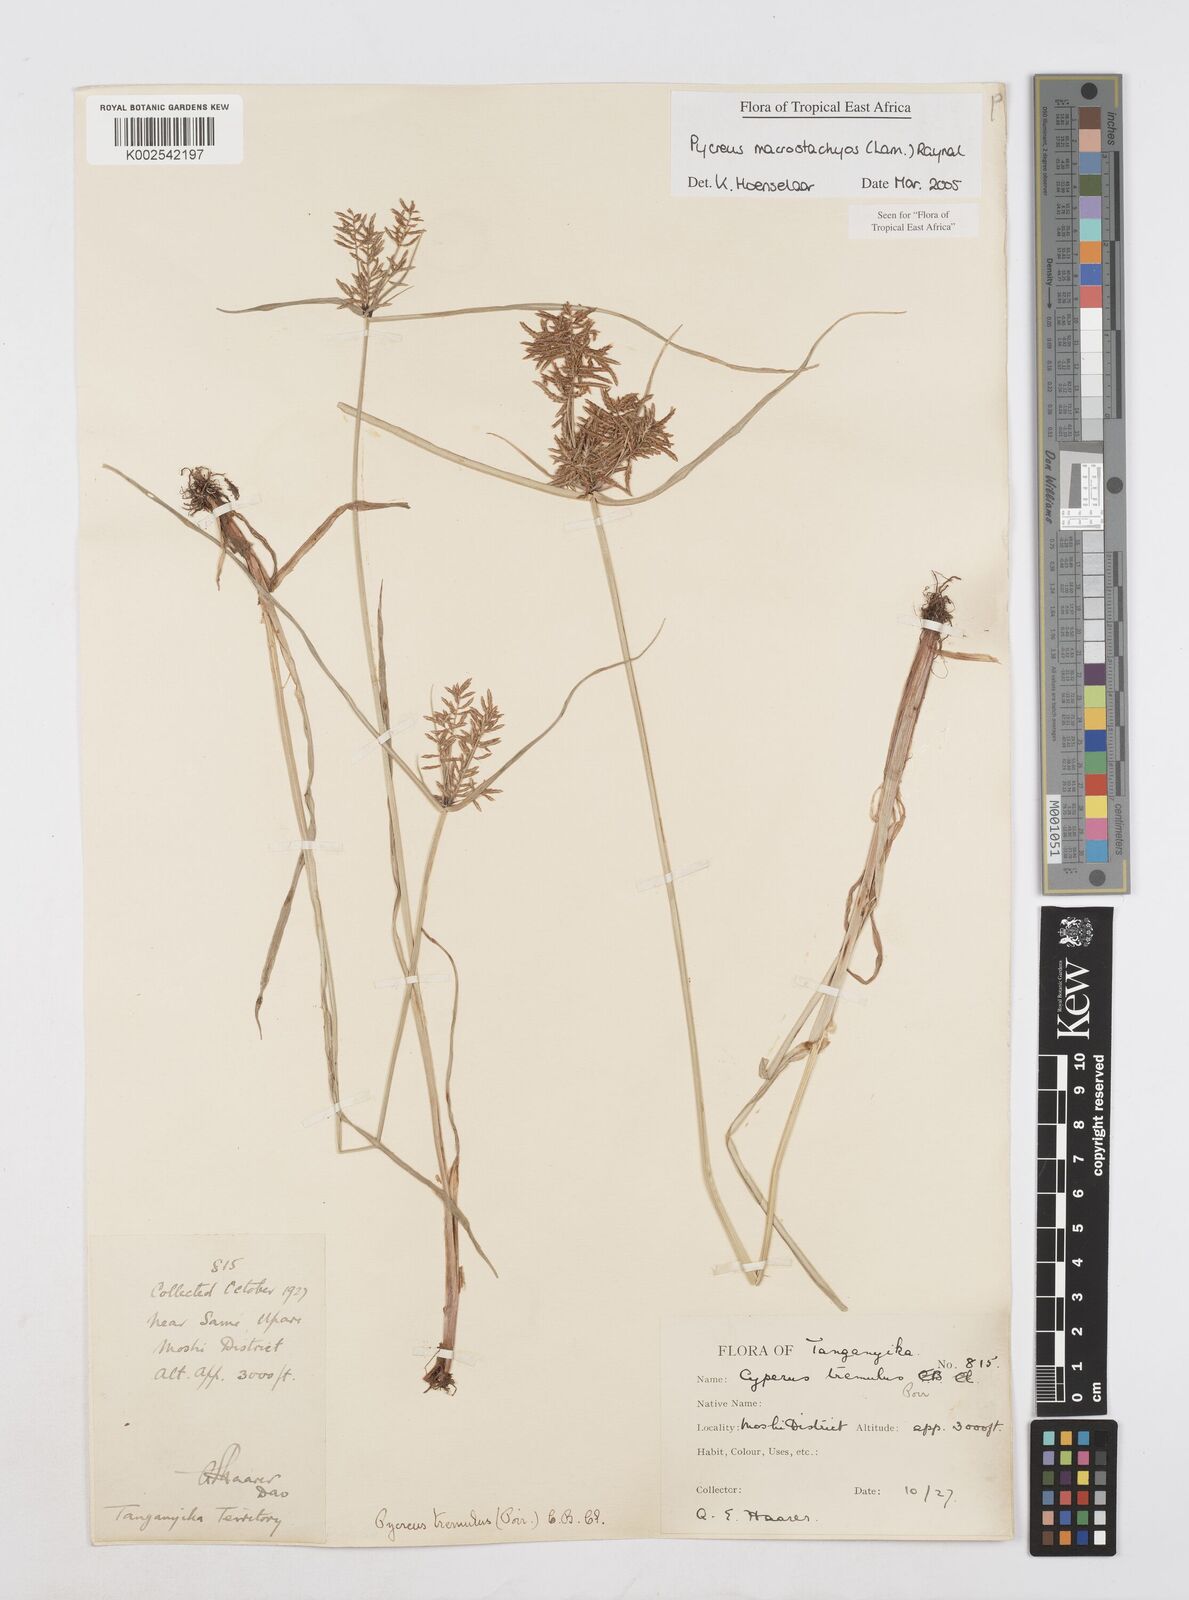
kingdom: Plantae
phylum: Tracheophyta
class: Liliopsida
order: Poales
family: Cyperaceae
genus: Cyperus
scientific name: Cyperus macrostachyos
